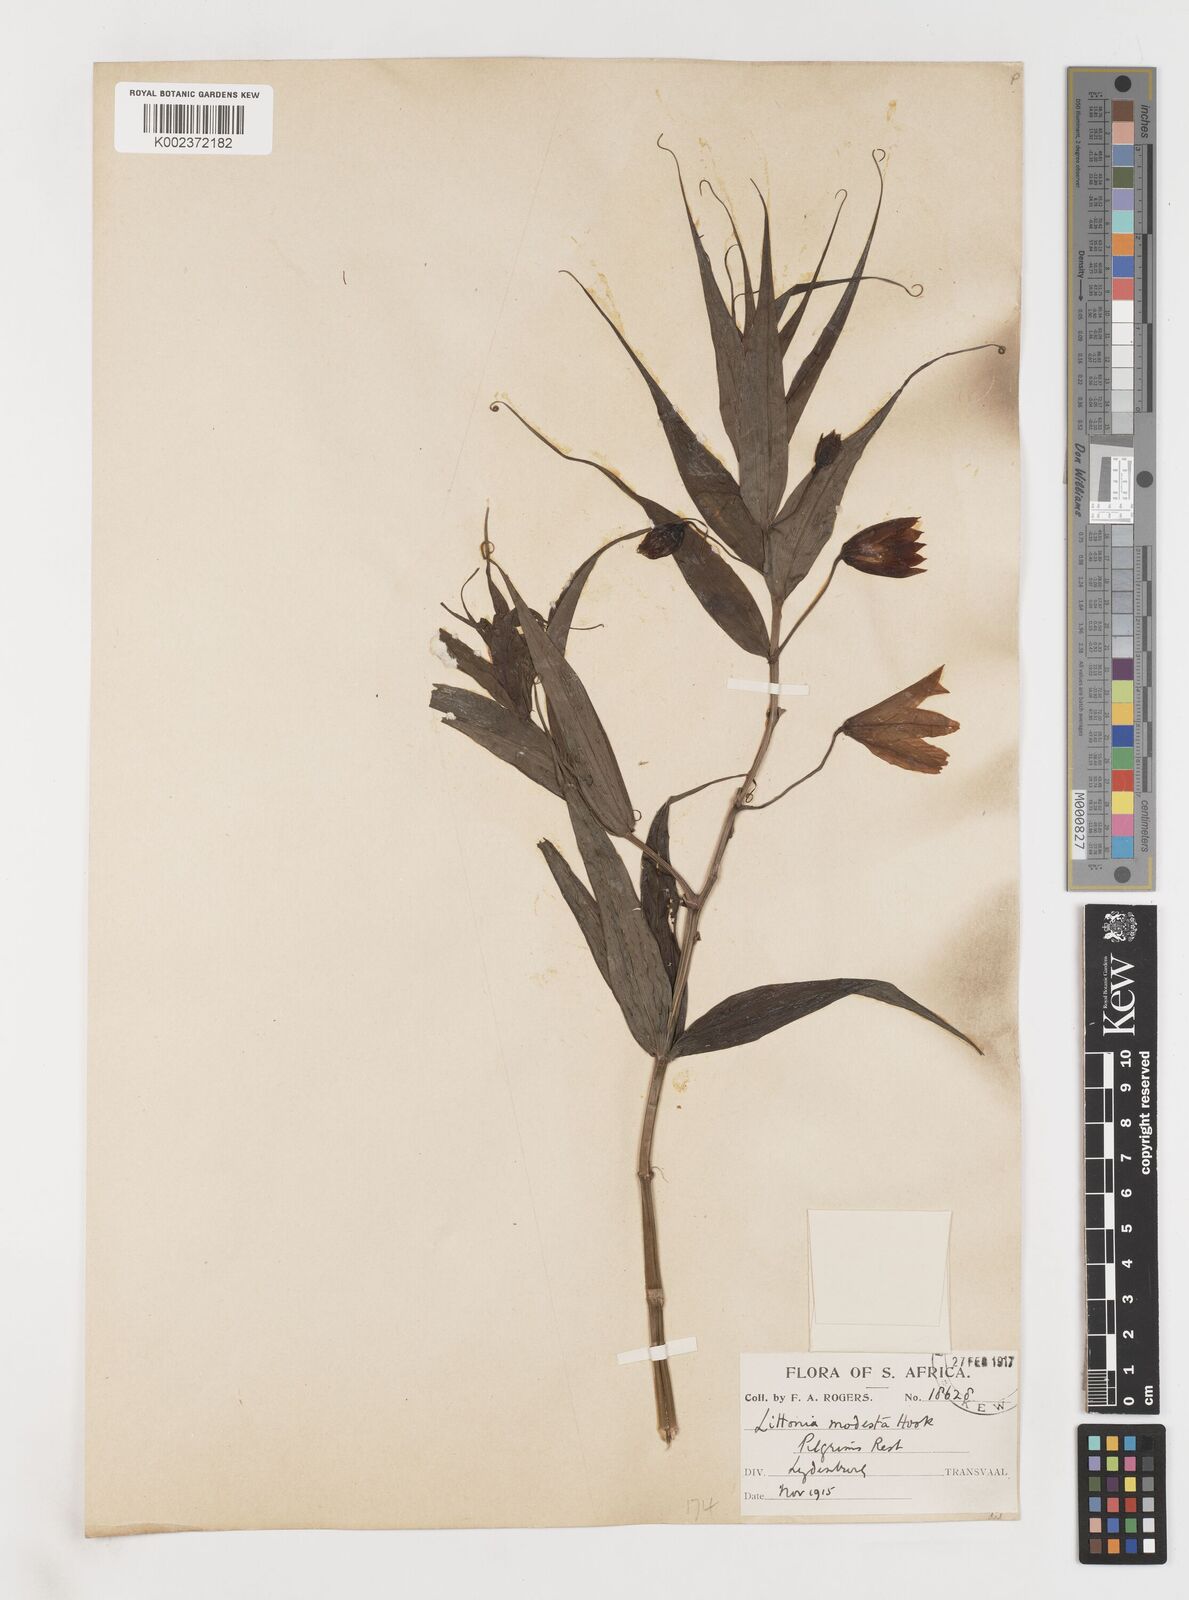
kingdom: Plantae
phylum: Tracheophyta
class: Liliopsida
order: Liliales
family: Colchicaceae
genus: Gloriosa
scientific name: Gloriosa modesta
